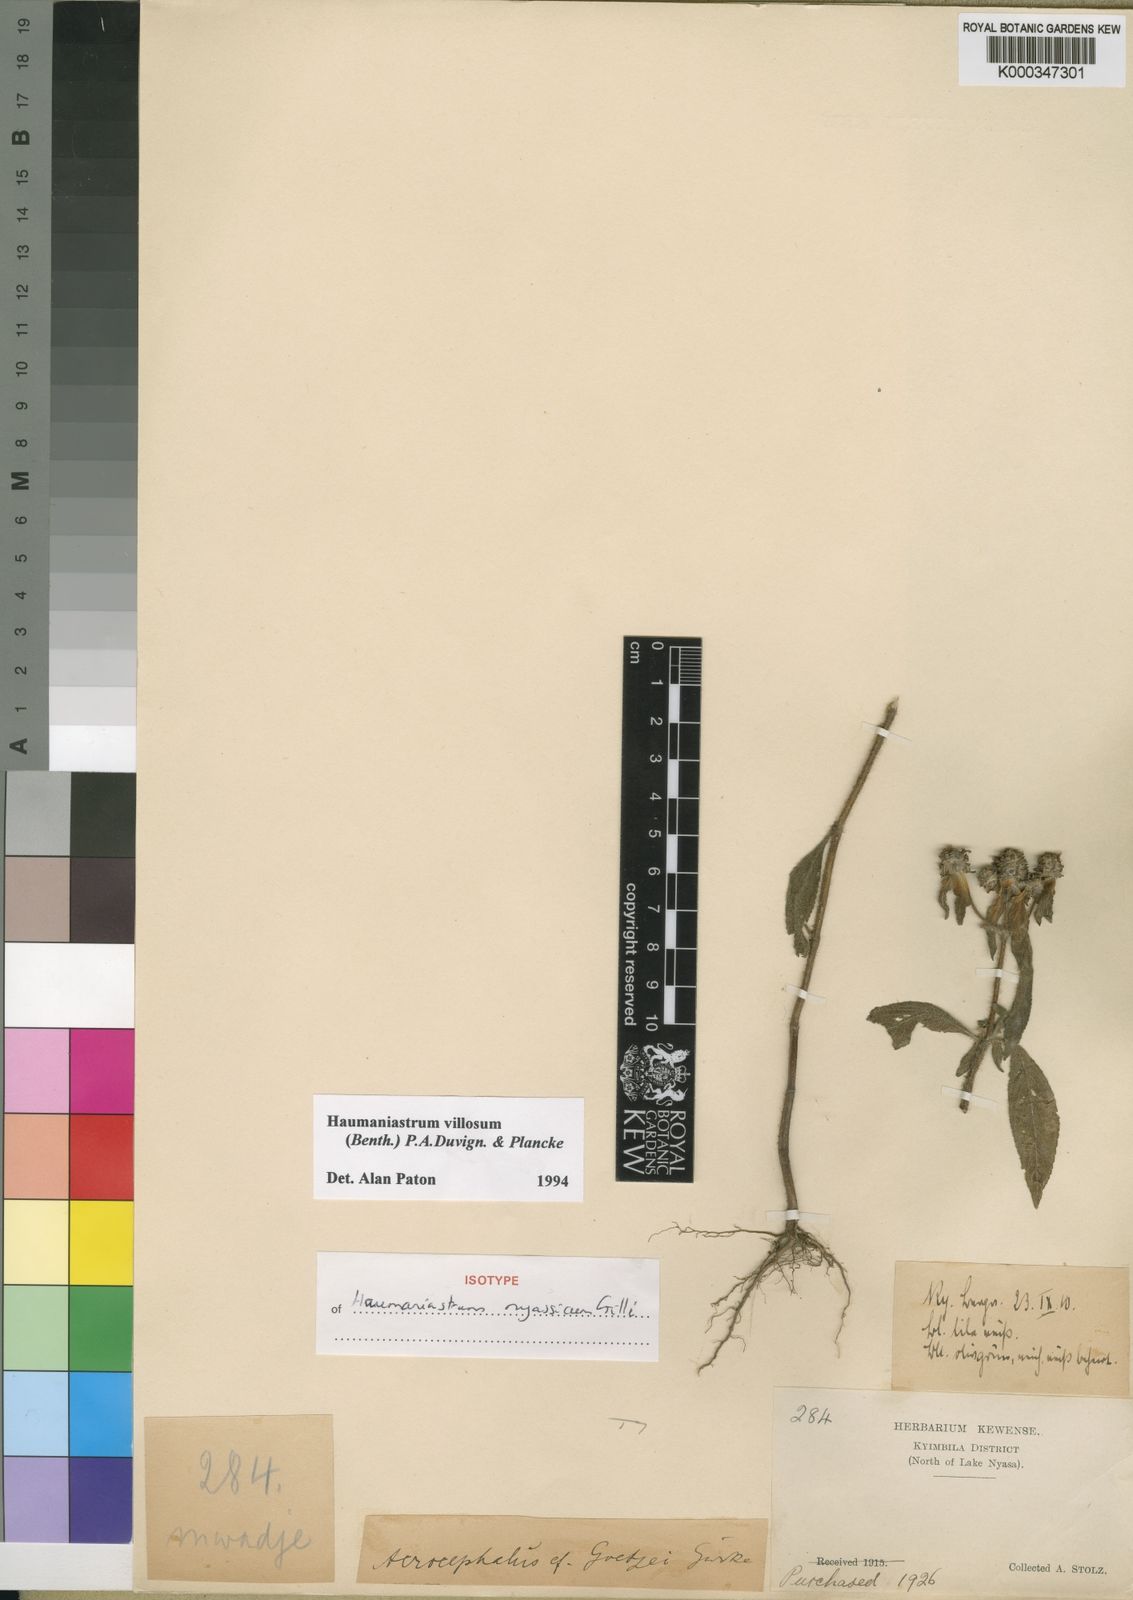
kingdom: Plantae
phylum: Tracheophyta
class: Magnoliopsida
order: Lamiales
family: Lamiaceae
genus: Haumaniastrum
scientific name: Haumaniastrum villosum
